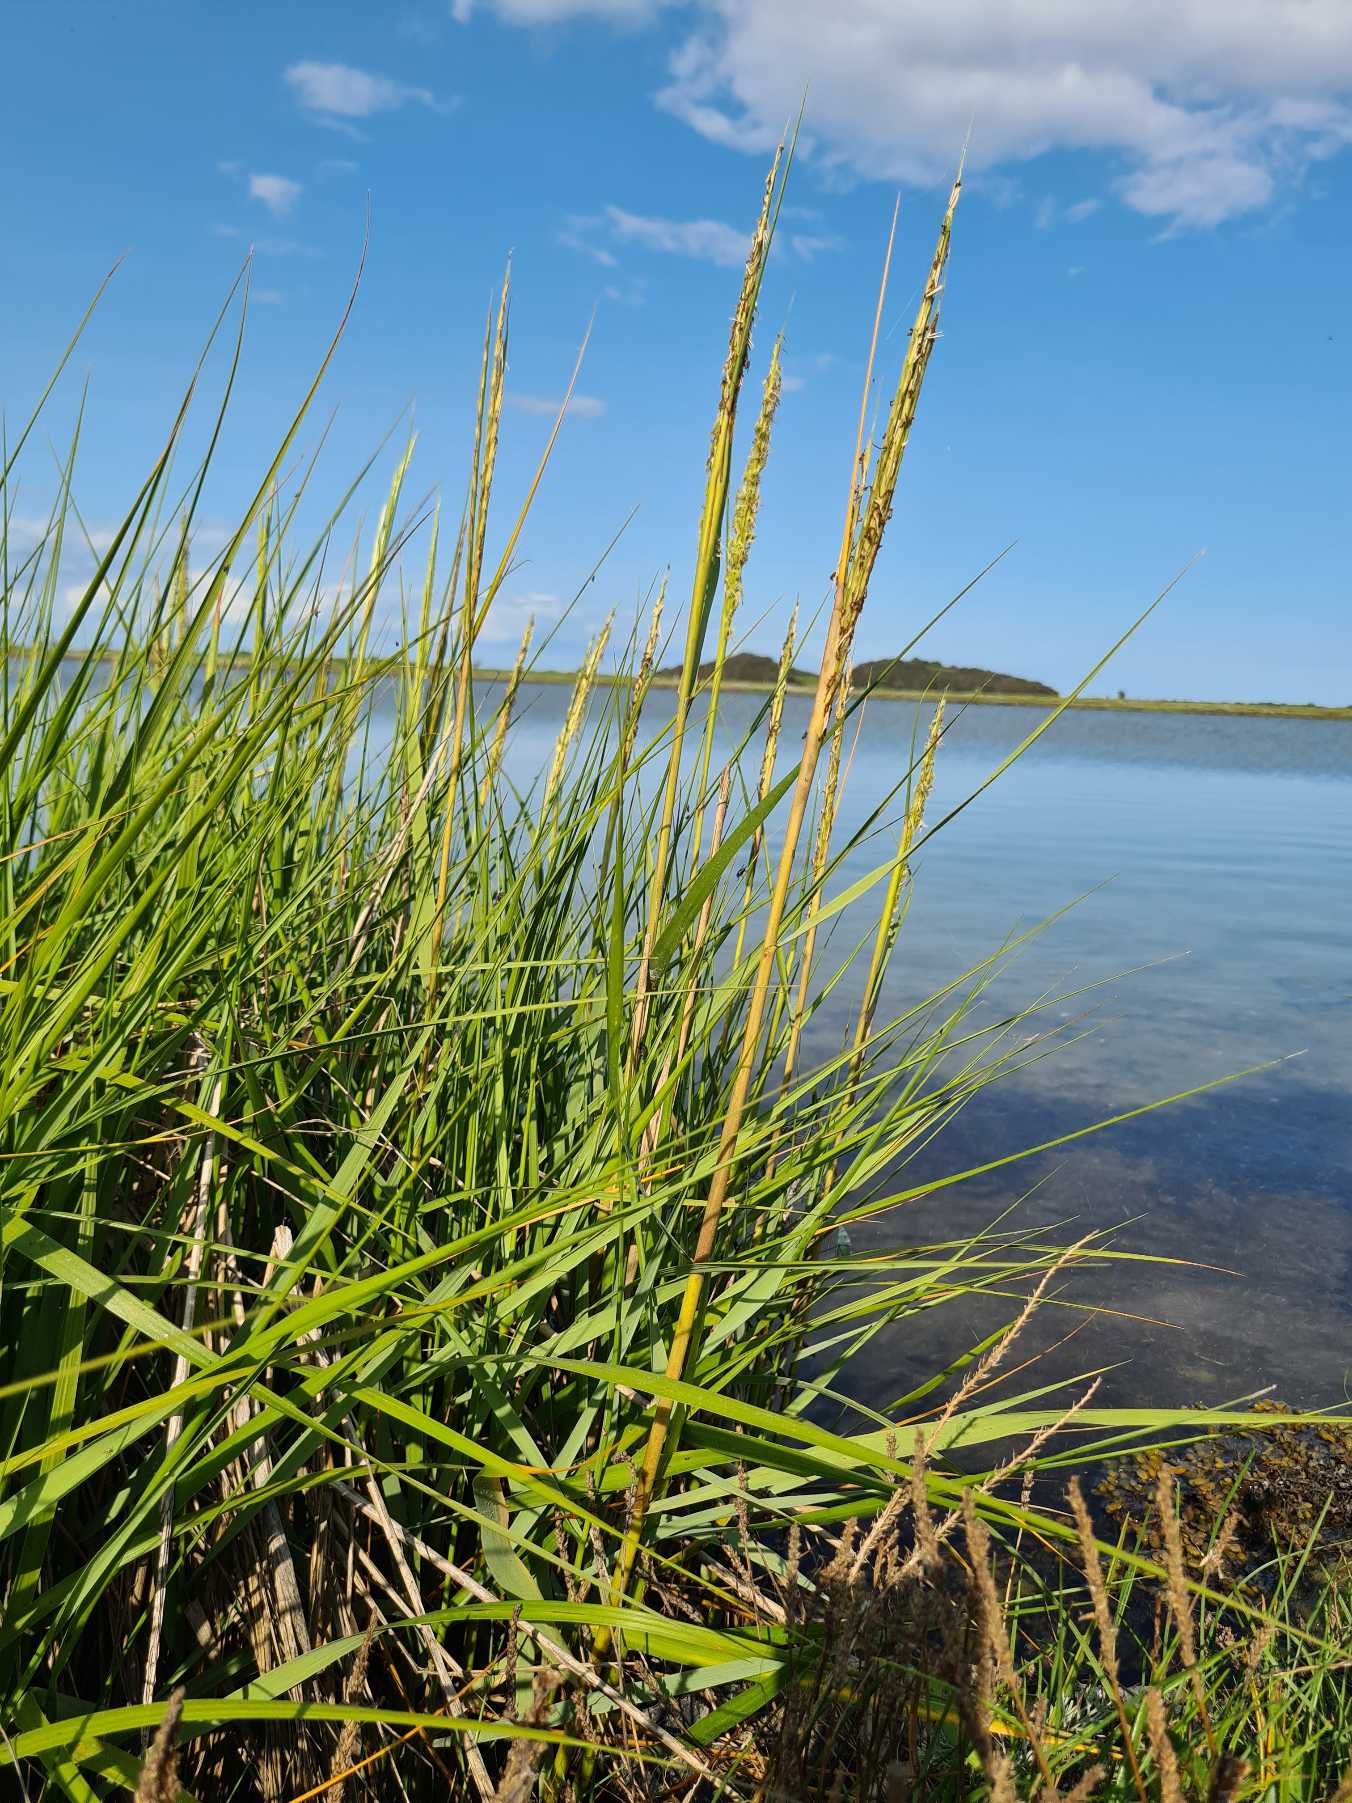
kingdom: Plantae
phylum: Tracheophyta
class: Liliopsida
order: Poales
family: Poaceae
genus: Sporobolus
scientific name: Sporobolus anglicus
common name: Engelsk vadegræs
